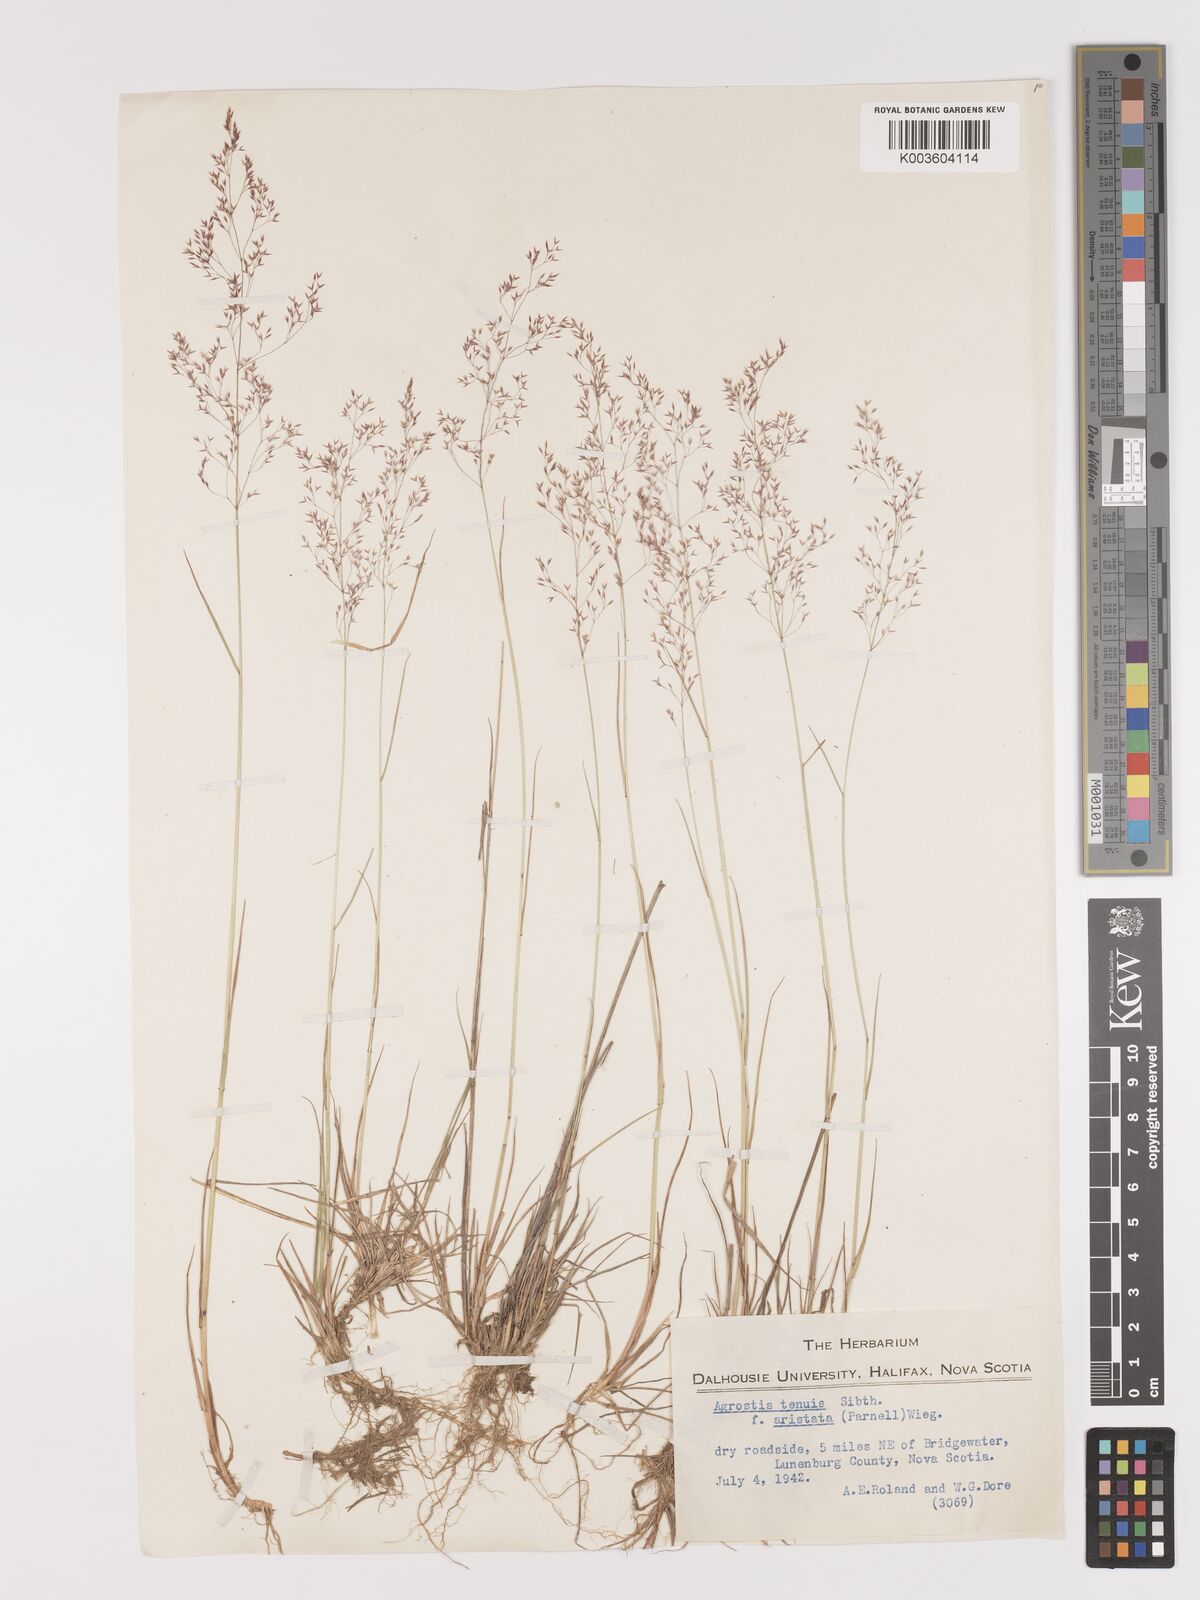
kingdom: Plantae
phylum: Tracheophyta
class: Liliopsida
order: Poales
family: Poaceae
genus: Agrostis
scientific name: Agrostis capillaris
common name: Colonial bentgrass
